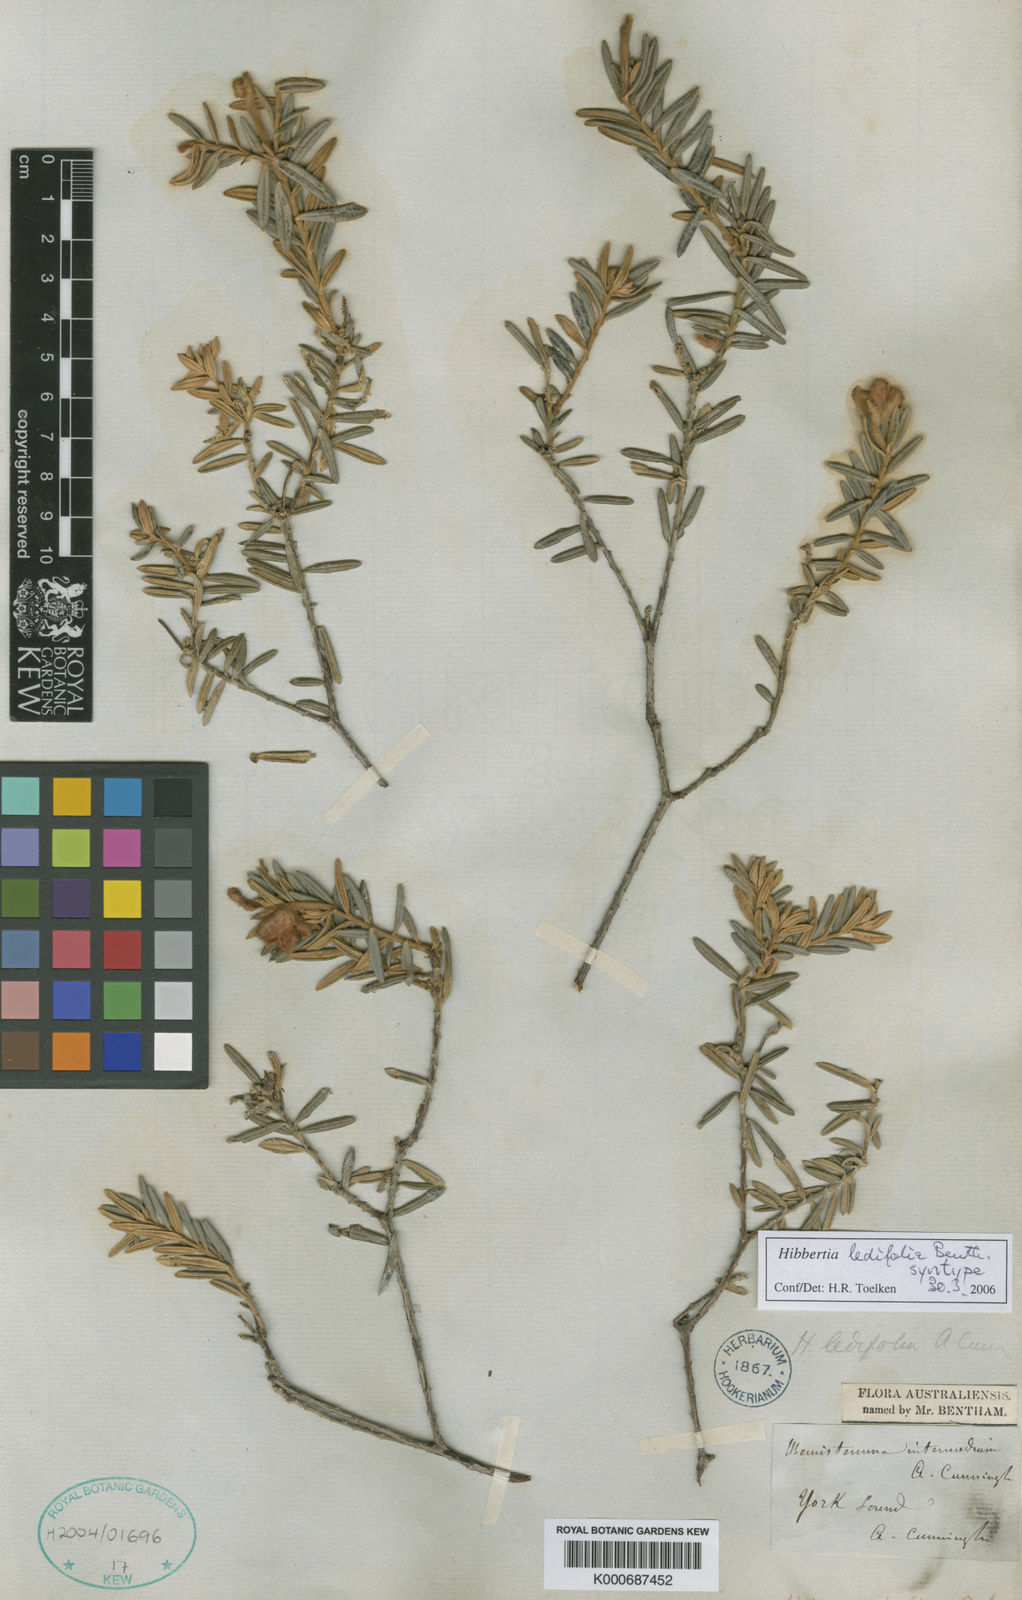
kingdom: Plantae
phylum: Tracheophyta
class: Magnoliopsida
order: Dilleniales
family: Dilleniaceae
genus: Hibbertia
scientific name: Hibbertia ledifolia
